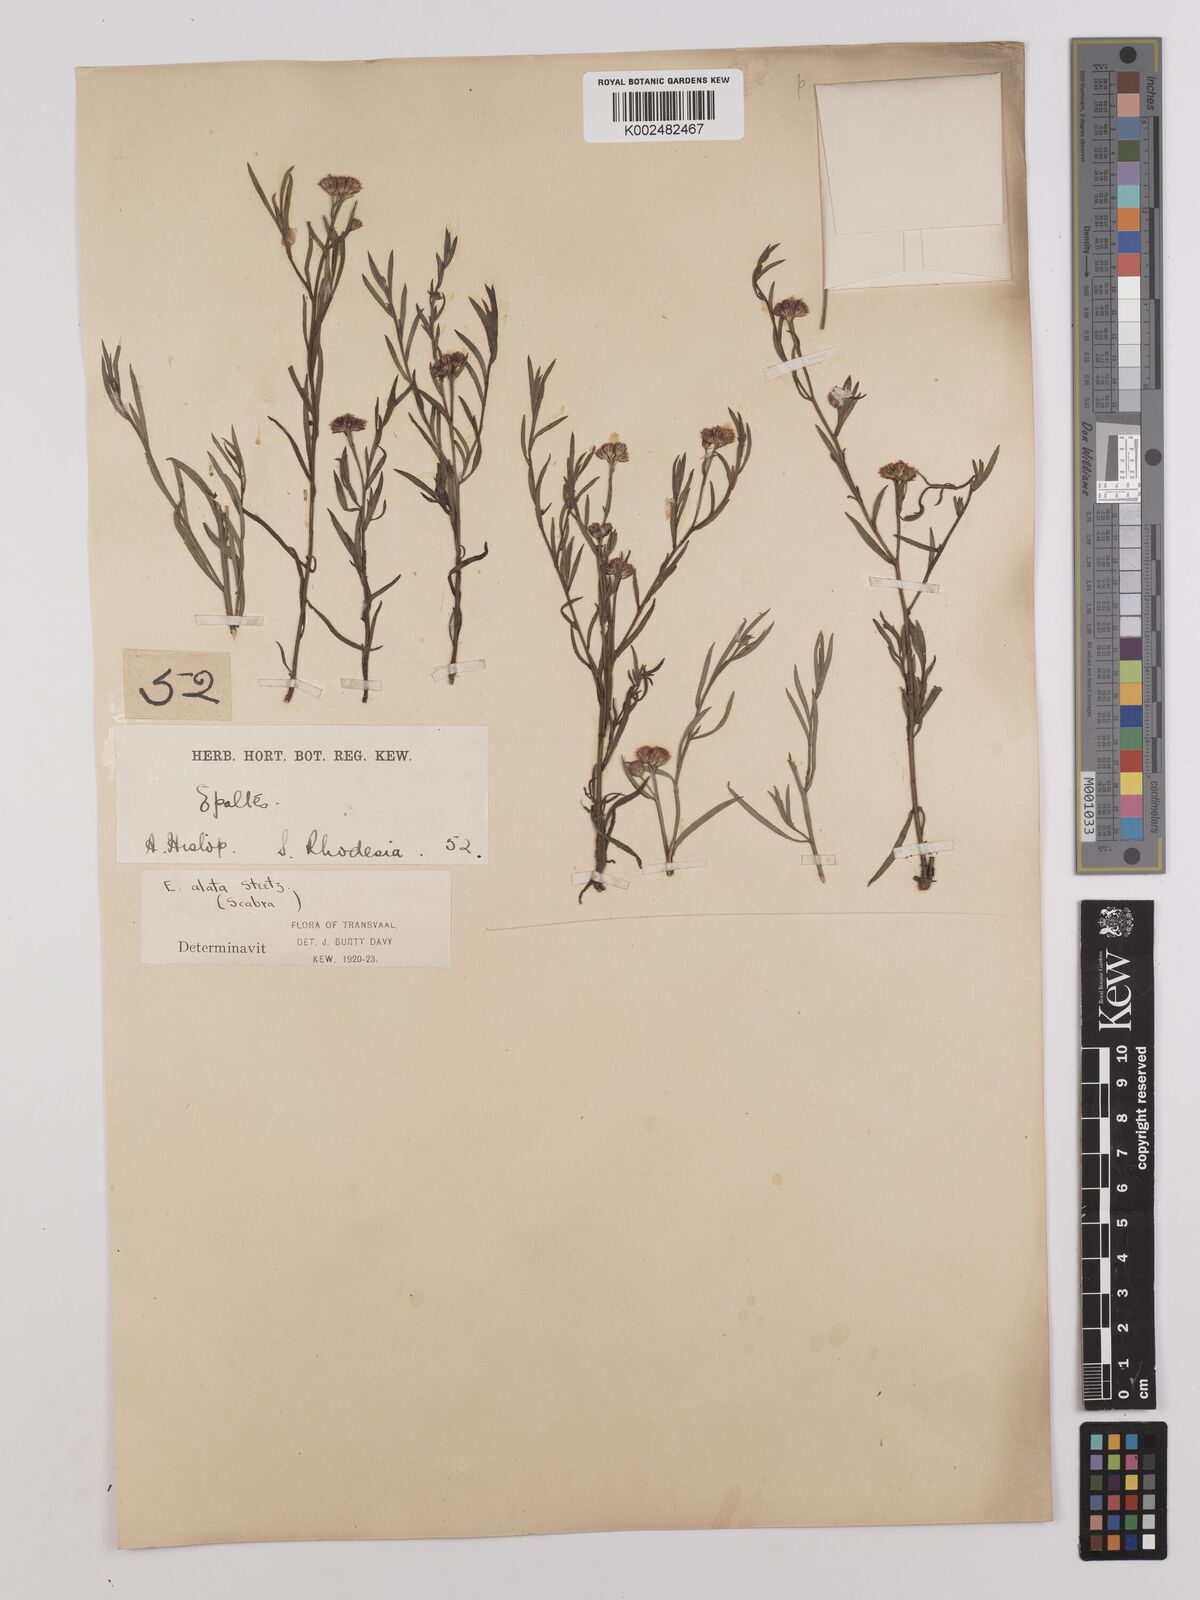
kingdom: Plantae
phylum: Tracheophyta
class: Magnoliopsida
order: Asterales
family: Asteraceae
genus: Litogyne
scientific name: Litogyne gariepina
